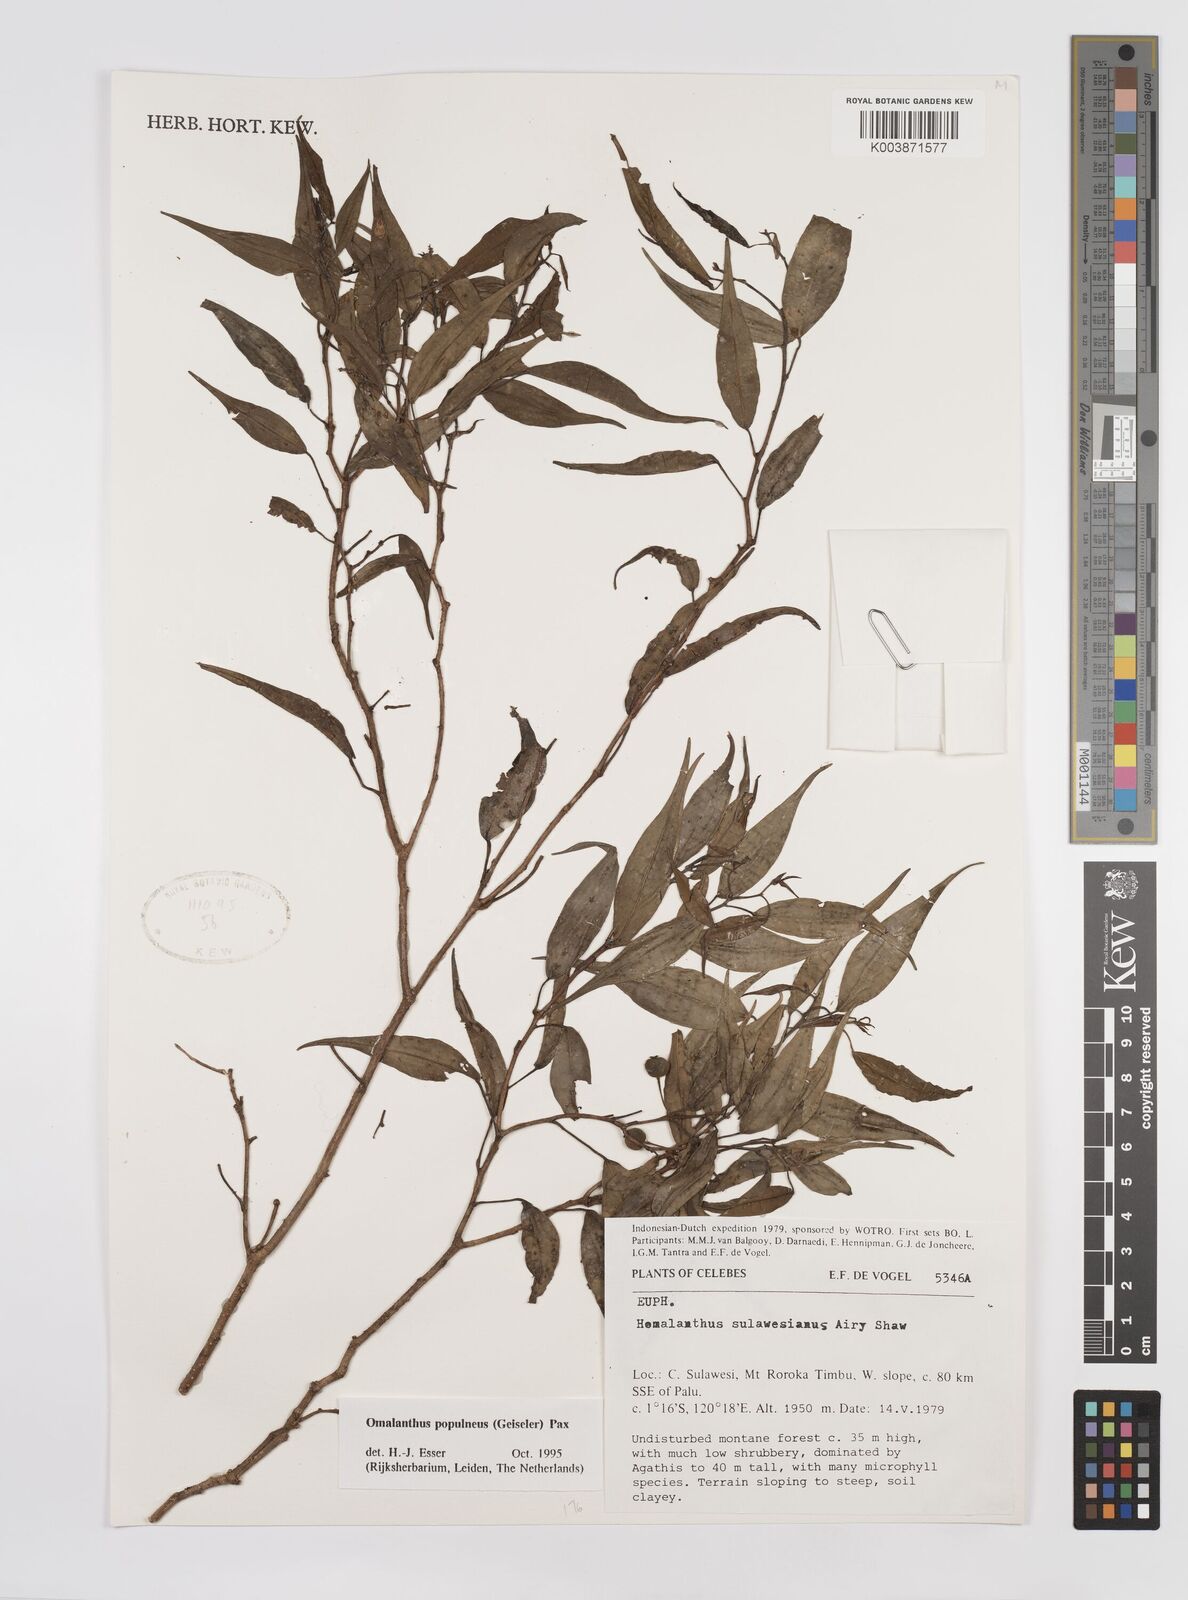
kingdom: Plantae
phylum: Tracheophyta
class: Magnoliopsida
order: Malpighiales
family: Euphorbiaceae
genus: Homalanthus
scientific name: Homalanthus populneus
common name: Spurge
